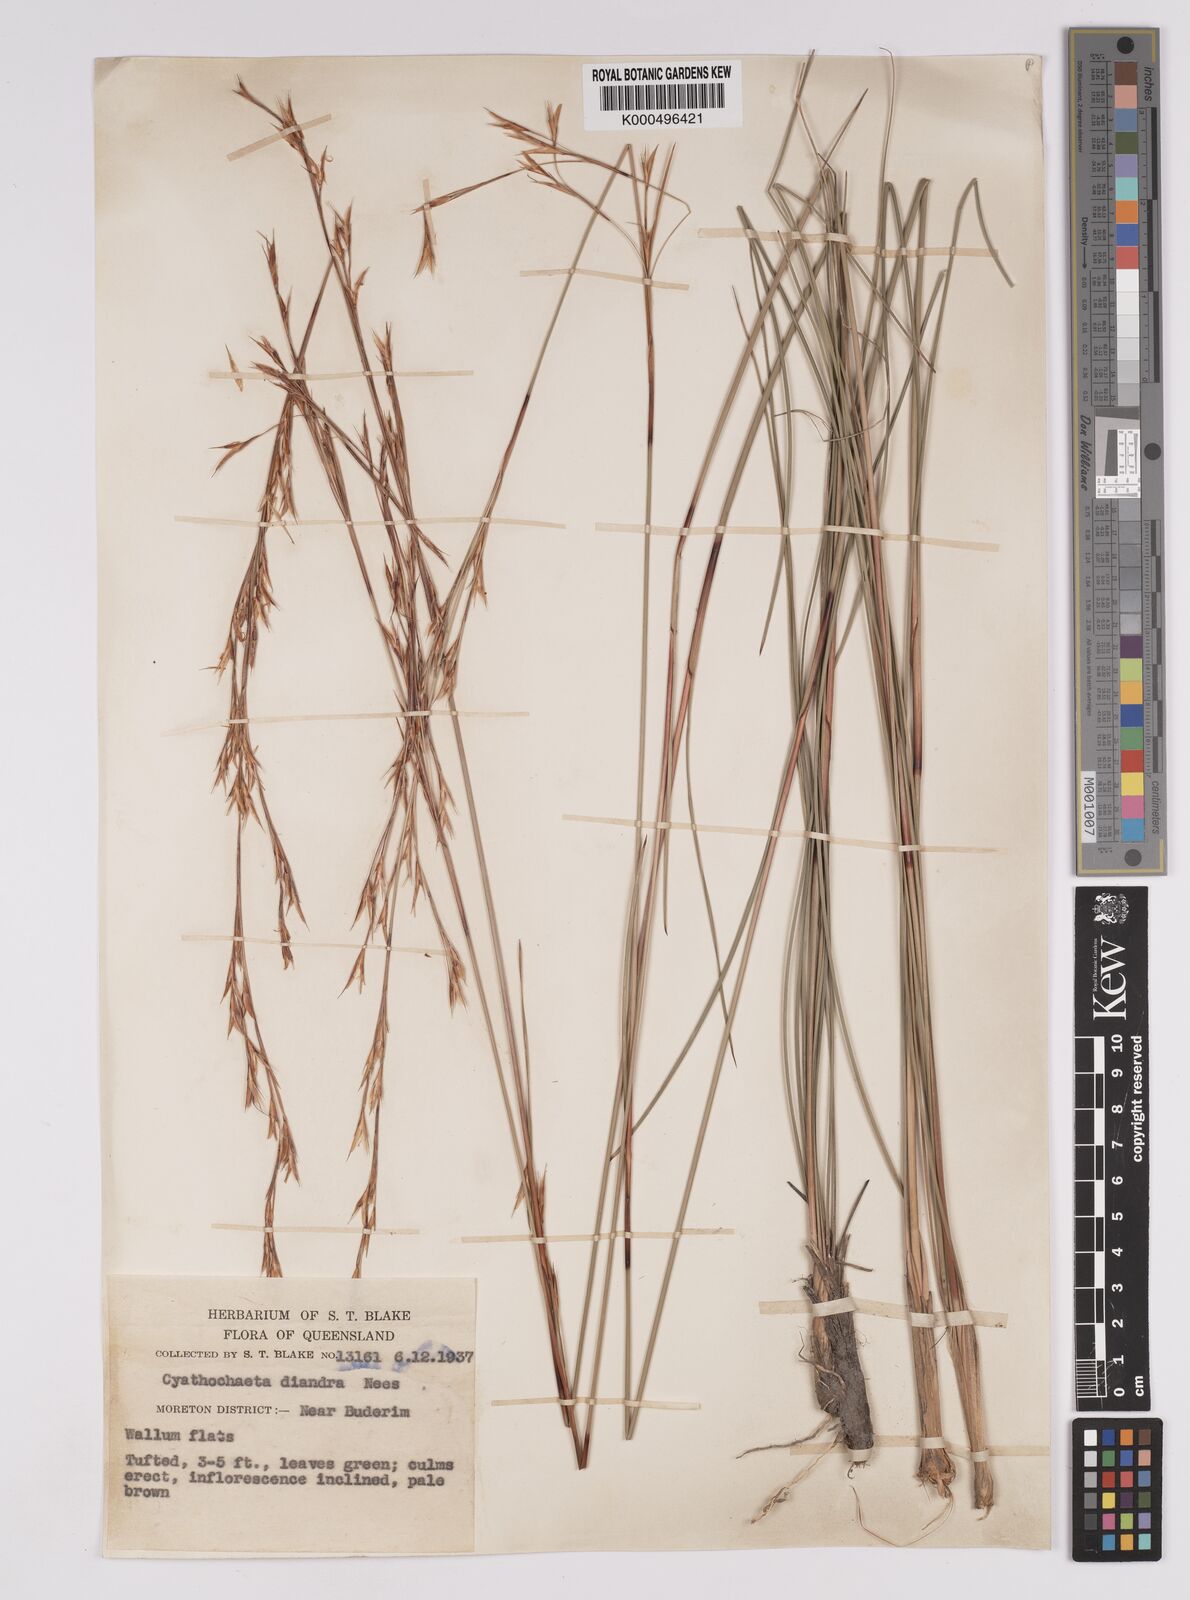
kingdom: Plantae
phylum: Tracheophyta
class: Liliopsida
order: Poales
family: Cyperaceae
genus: Cyathochaeta
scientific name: Cyathochaeta diandra
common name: Sheath rush
